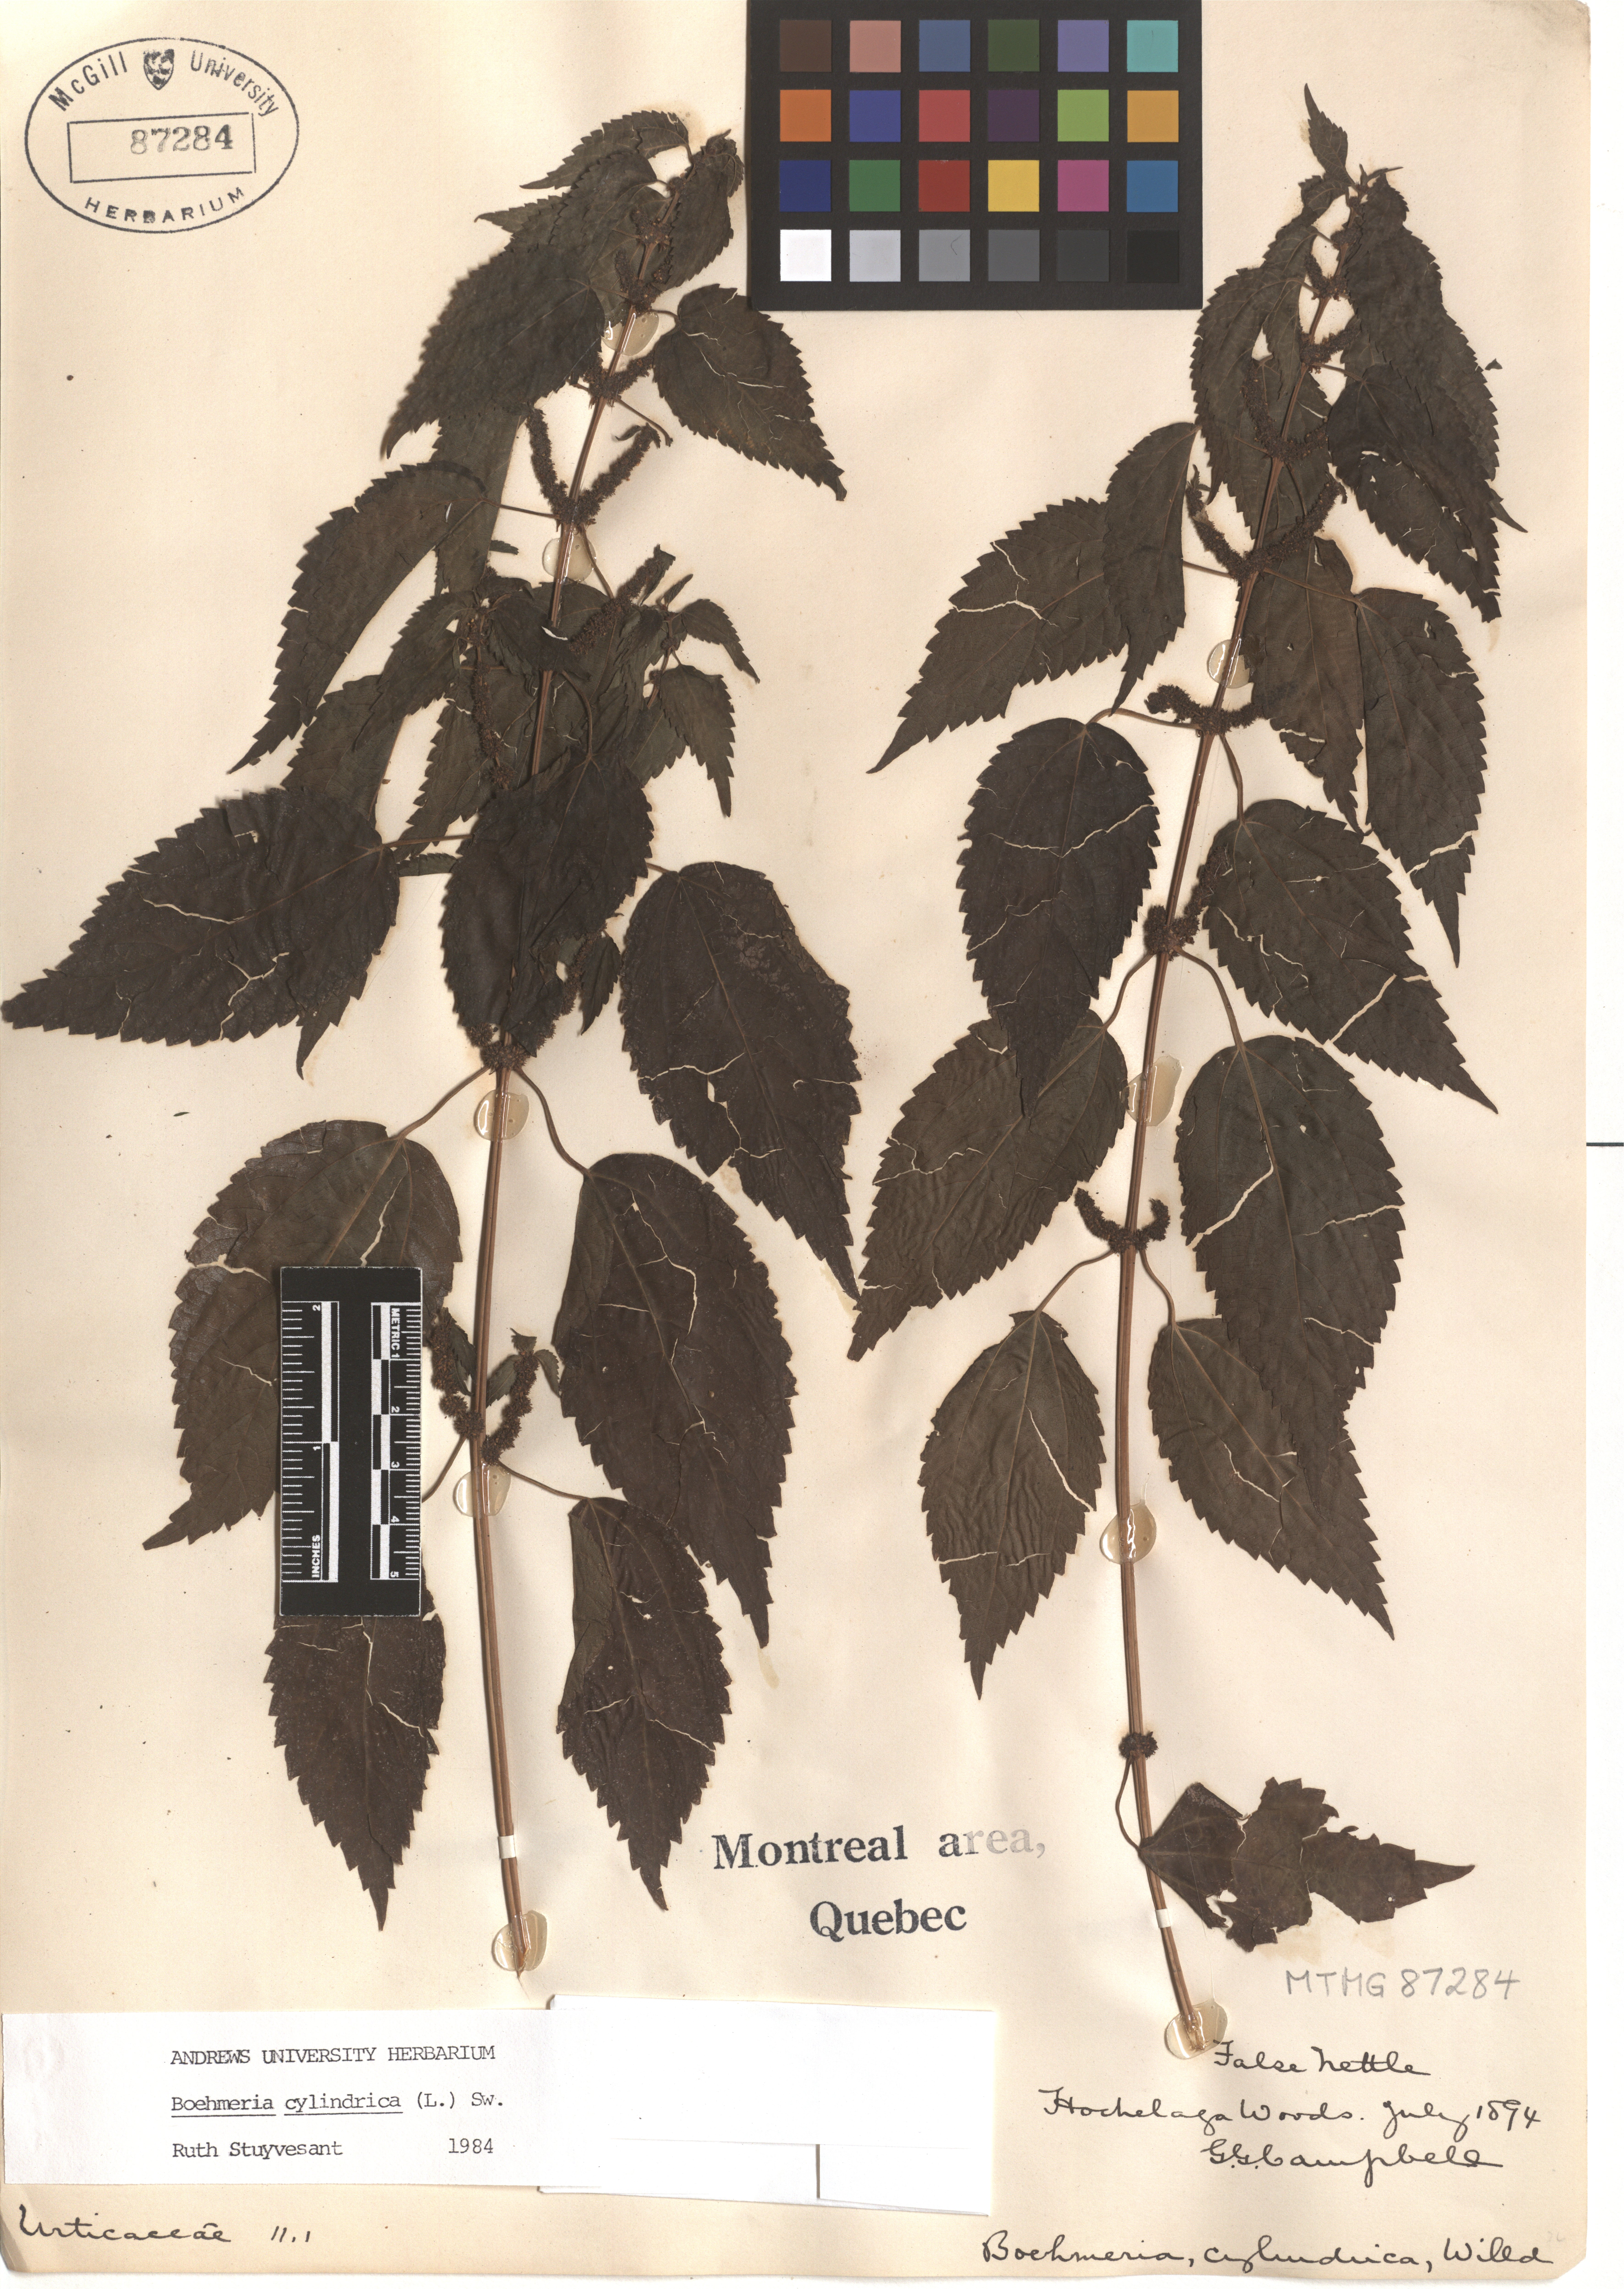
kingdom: Plantae
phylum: Tracheophyta
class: Magnoliopsida
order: Rosales
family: Urticaceae
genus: Boehmeria
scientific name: Boehmeria cylindrica
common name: Bog-hemp
